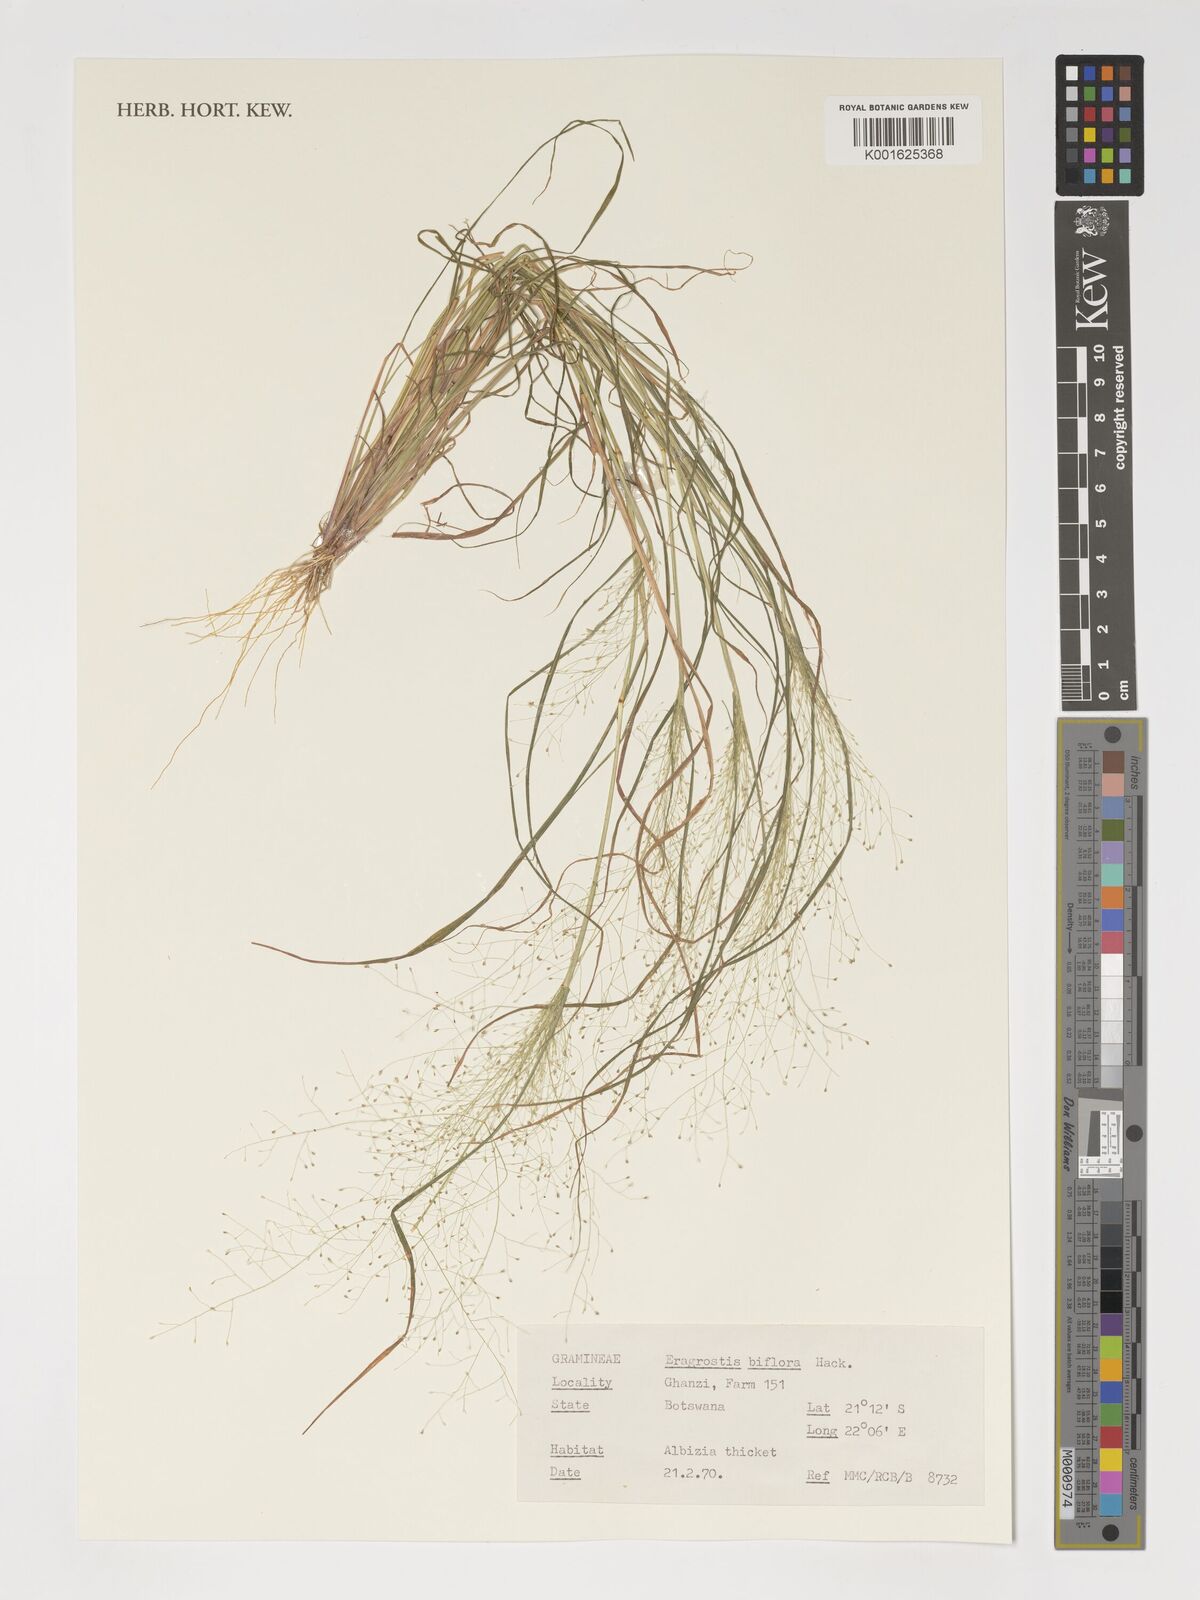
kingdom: Plantae
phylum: Tracheophyta
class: Liliopsida
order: Poales
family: Poaceae
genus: Eragrostis
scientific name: Eragrostis biflora
